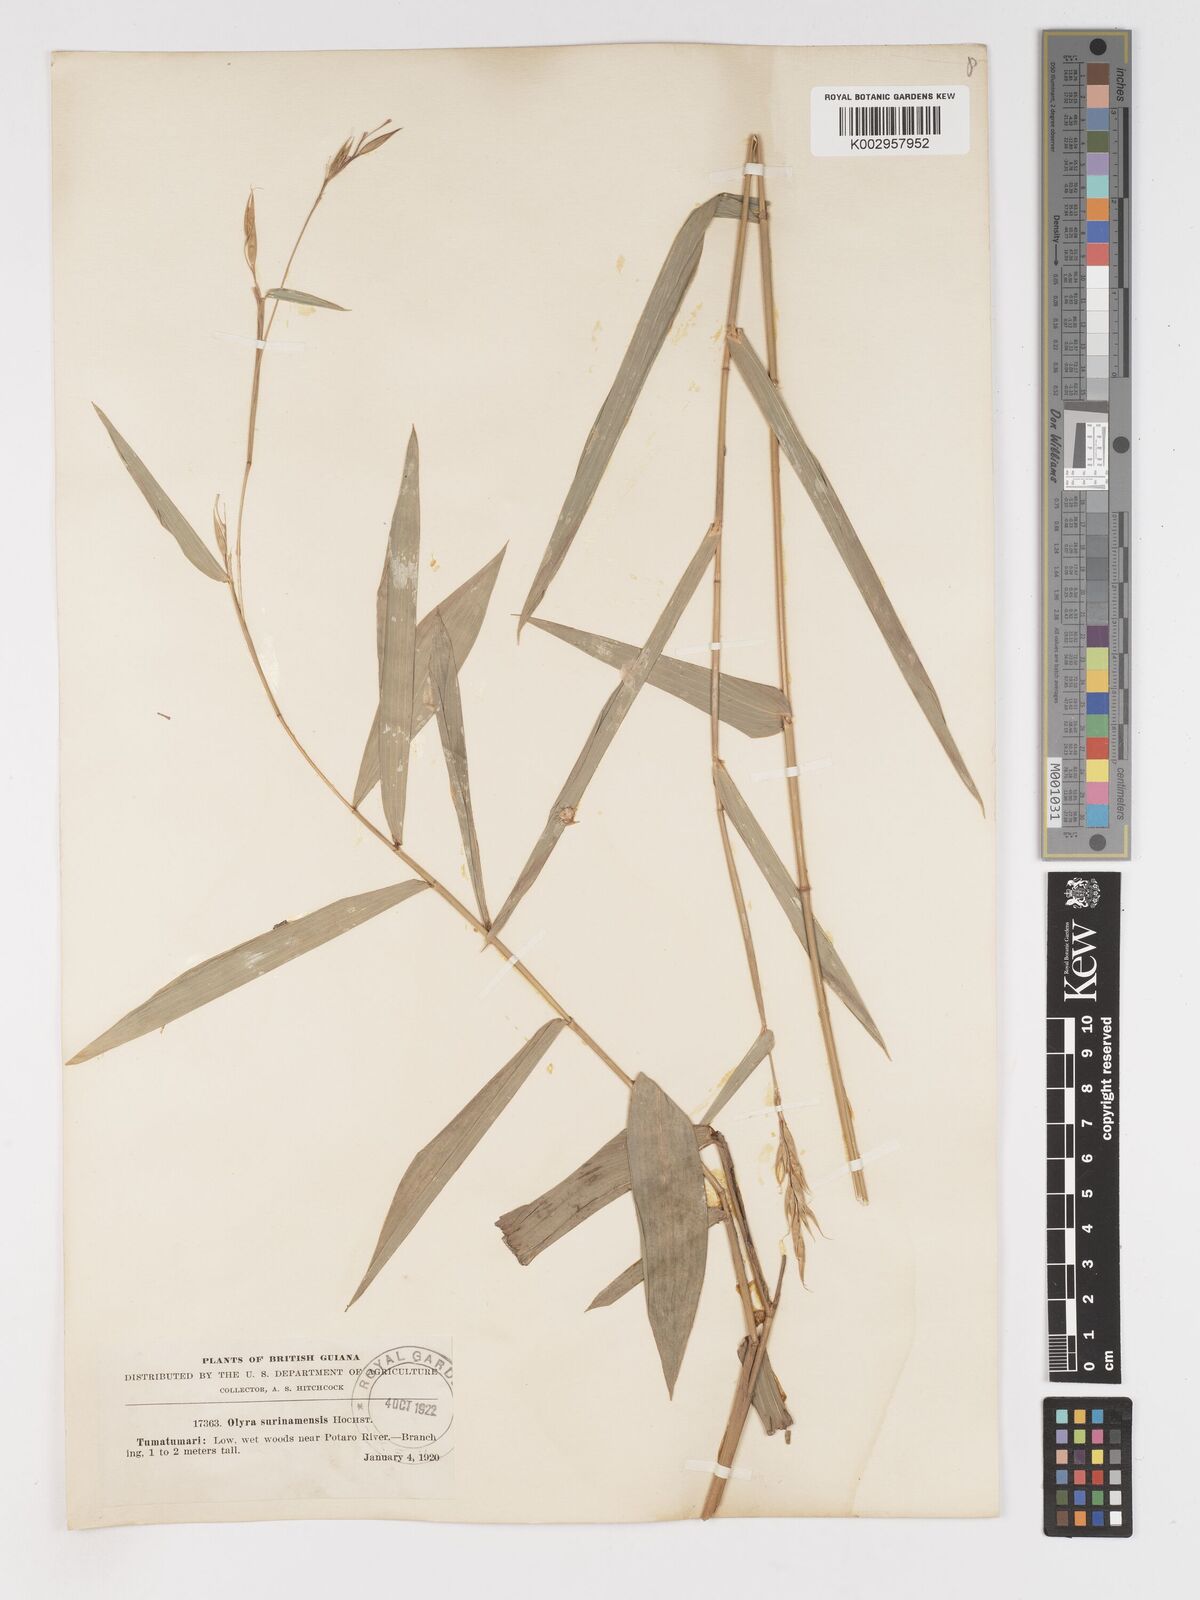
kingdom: Plantae
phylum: Tracheophyta
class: Liliopsida
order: Poales
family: Poaceae
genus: Olyra
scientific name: Olyra longifolia
